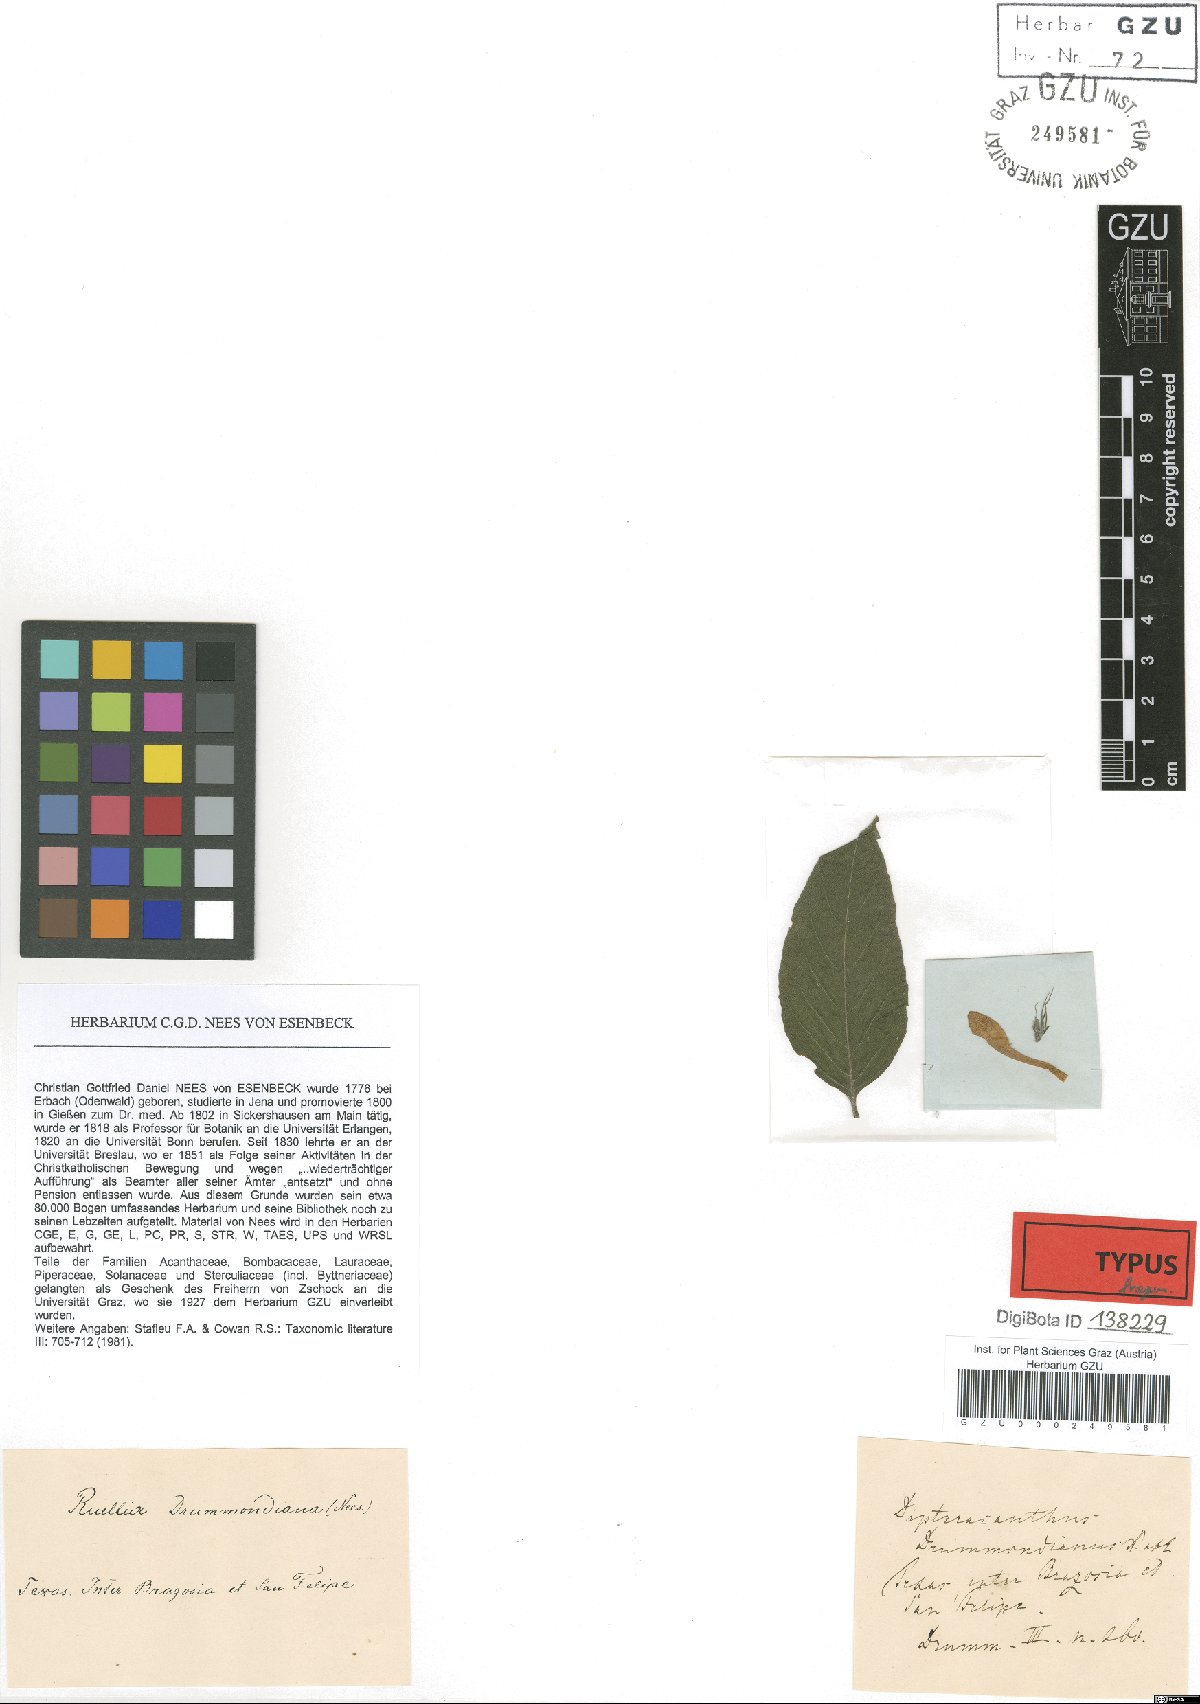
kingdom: Plantae
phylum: Tracheophyta
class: Magnoliopsida
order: Lamiales
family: Acanthaceae
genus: Ruellia
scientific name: Ruellia drummondiana
